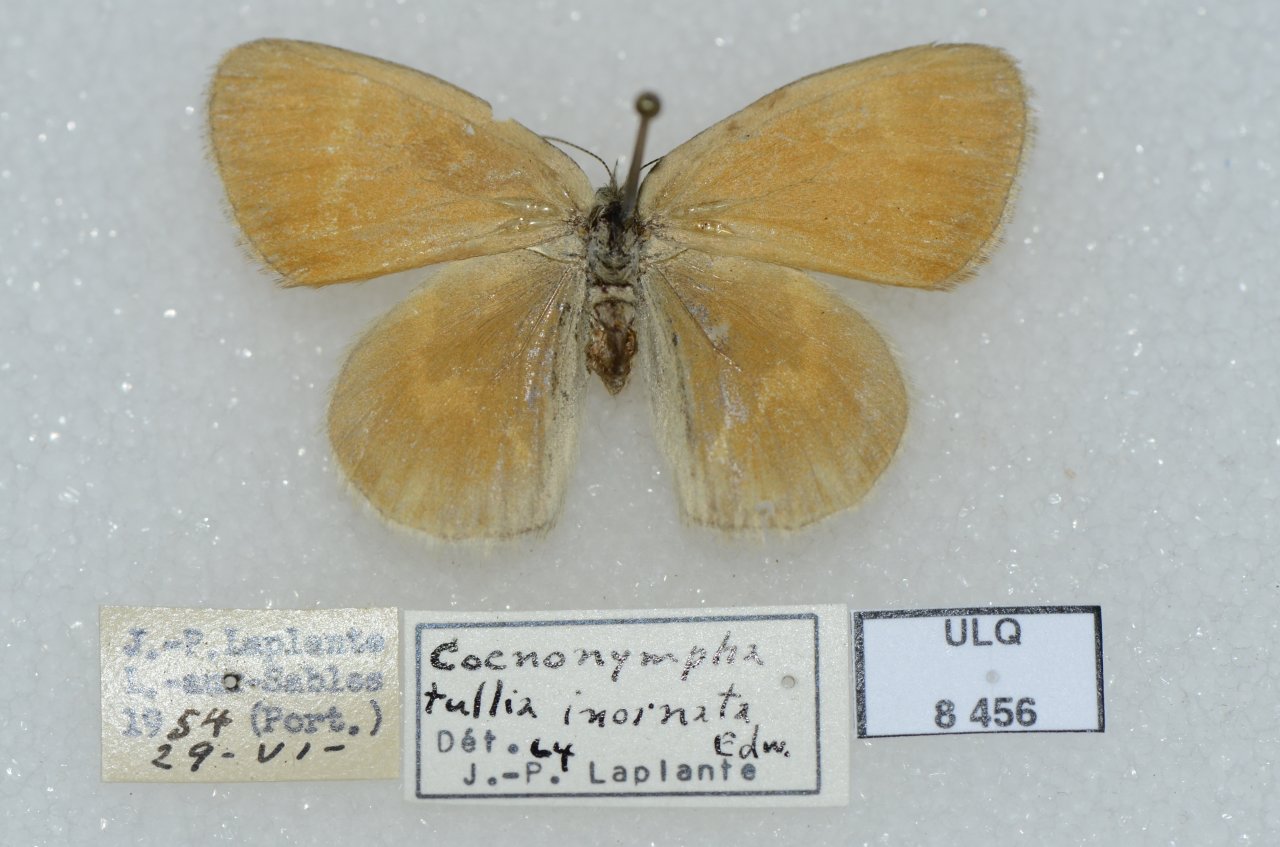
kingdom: Animalia
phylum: Arthropoda
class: Insecta
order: Lepidoptera
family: Nymphalidae
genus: Coenonympha
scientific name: Coenonympha tullia
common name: Large Heath
